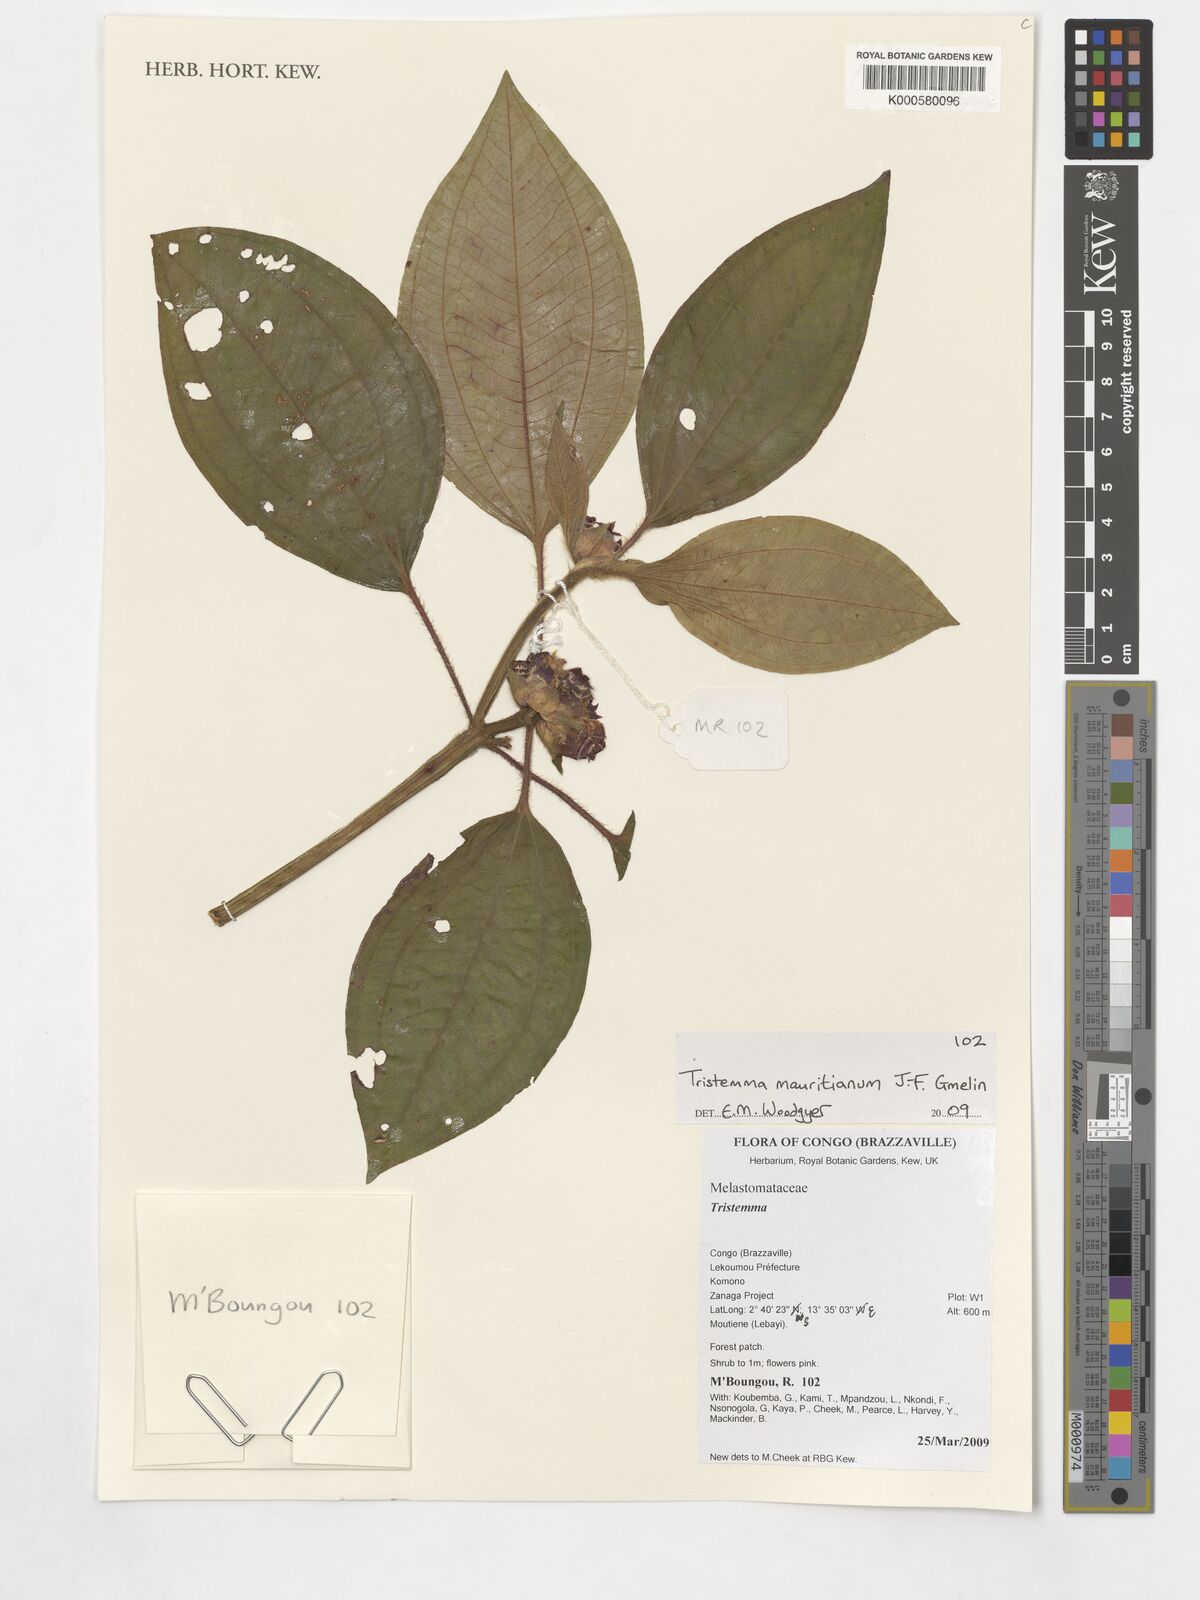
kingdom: Plantae
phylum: Tracheophyta
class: Magnoliopsida
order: Myrtales
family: Melastomataceae
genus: Tristemma
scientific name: Tristemma mauritianum
